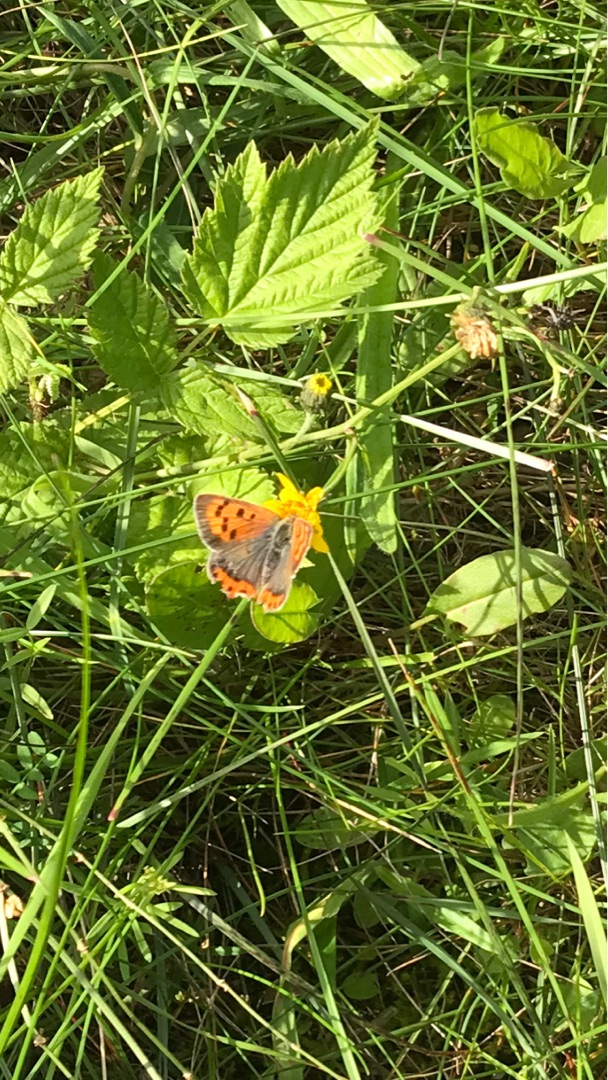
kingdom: Animalia
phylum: Arthropoda
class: Insecta
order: Lepidoptera
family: Lycaenidae
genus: Lycaena
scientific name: Lycaena phlaeas
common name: Lille ildfugl
